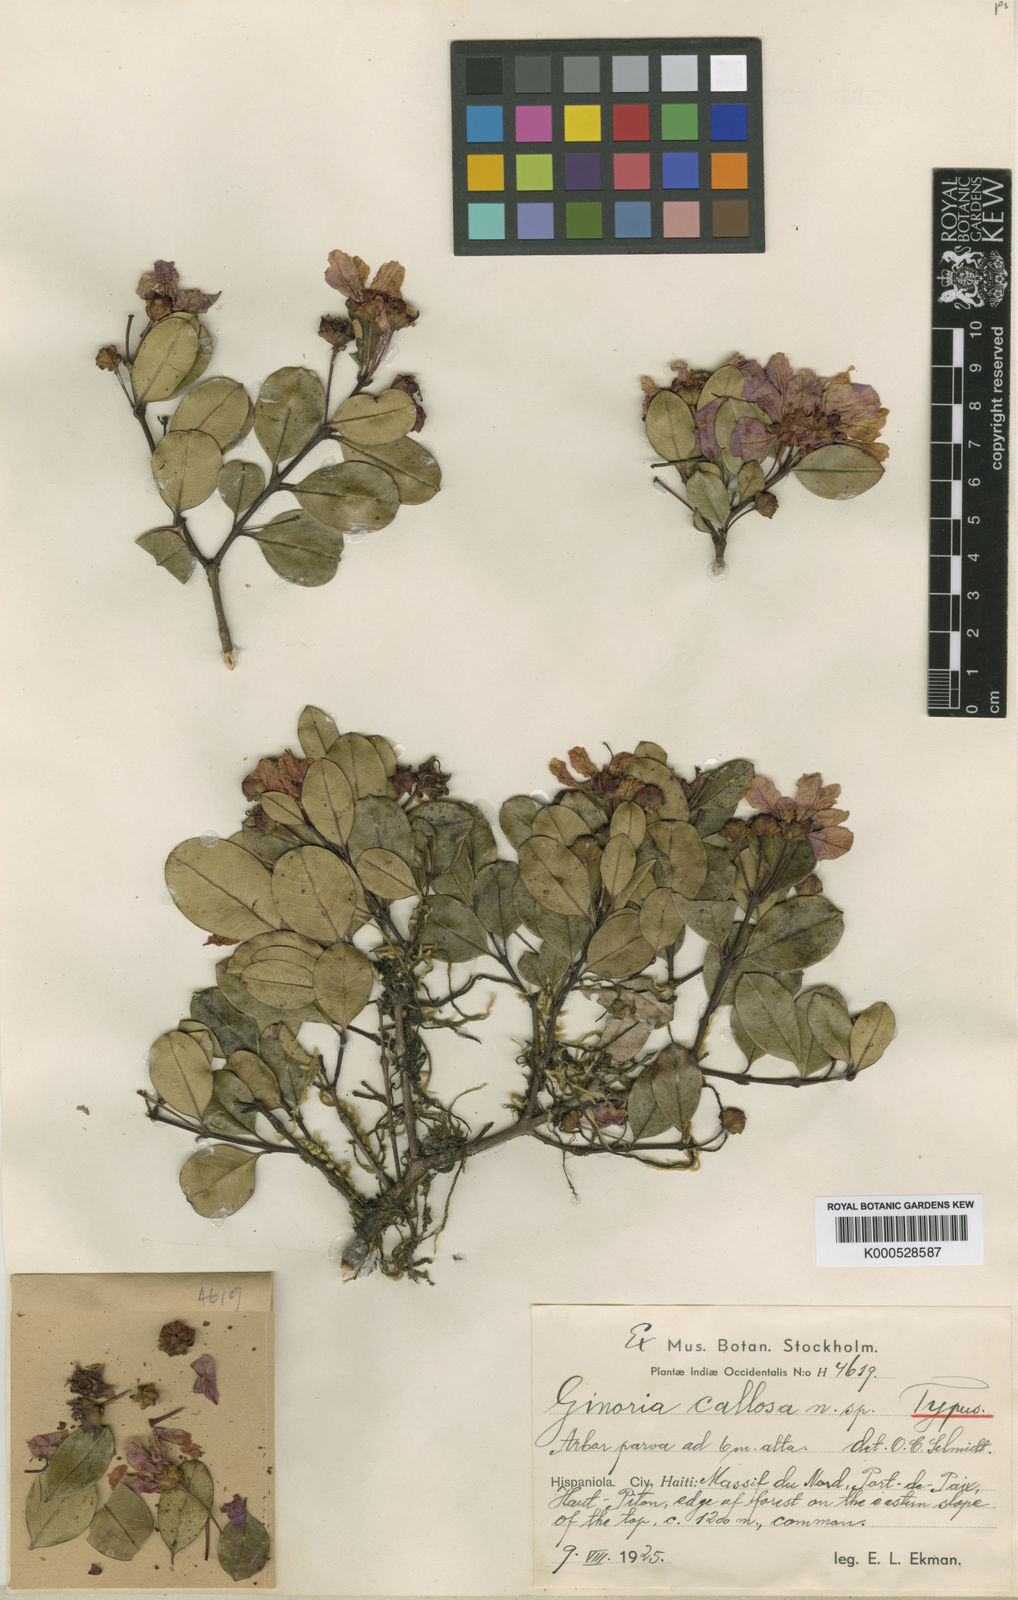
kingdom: Plantae
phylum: Tracheophyta
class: Magnoliopsida
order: Myrtales
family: Lythraceae
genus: Ginoria
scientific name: Ginoria callosa
